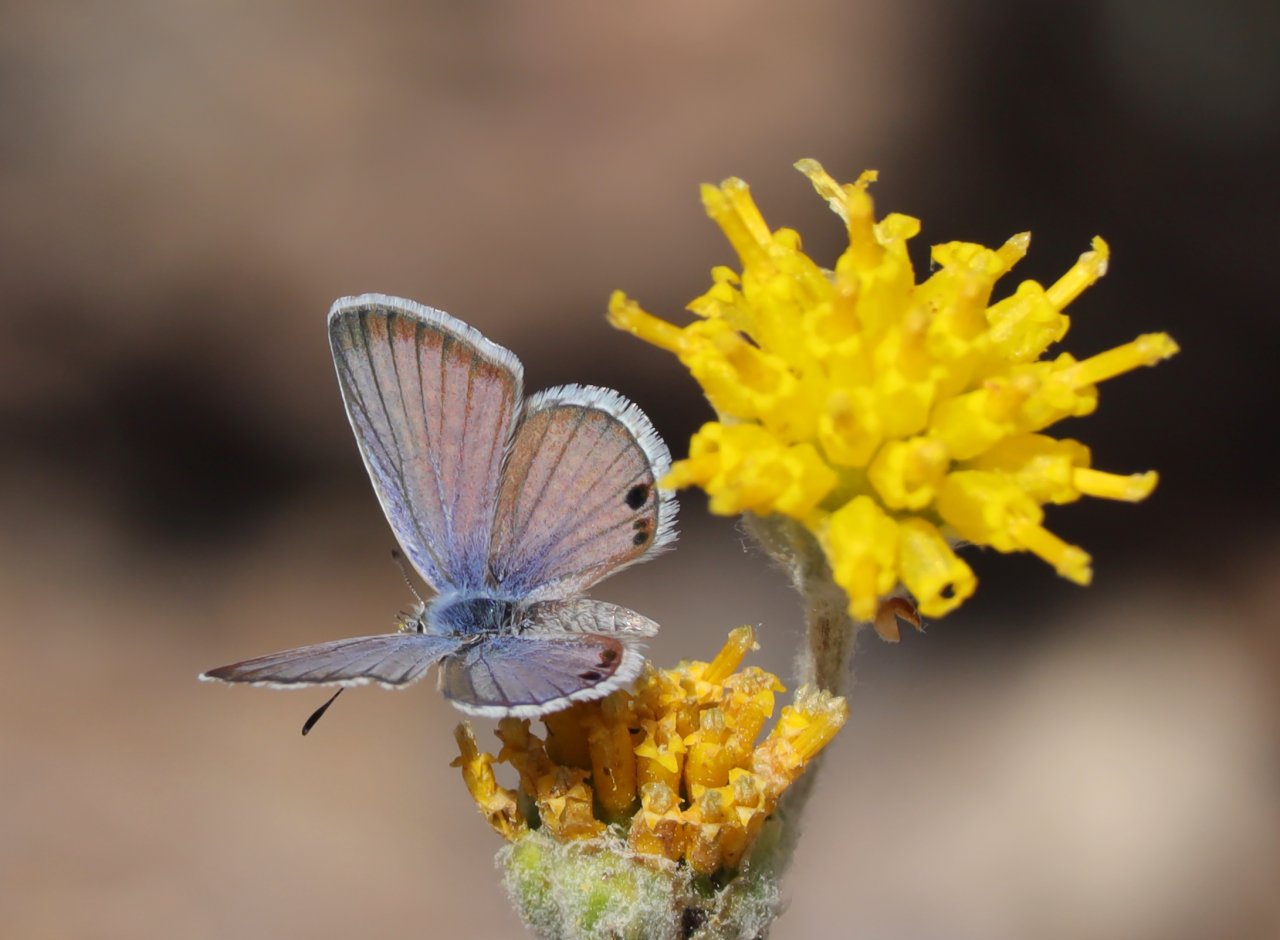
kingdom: Animalia
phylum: Arthropoda
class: Insecta
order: Lepidoptera
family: Lycaenidae
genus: Echinargus
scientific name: Echinargus isola
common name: Reakirt's Blue
